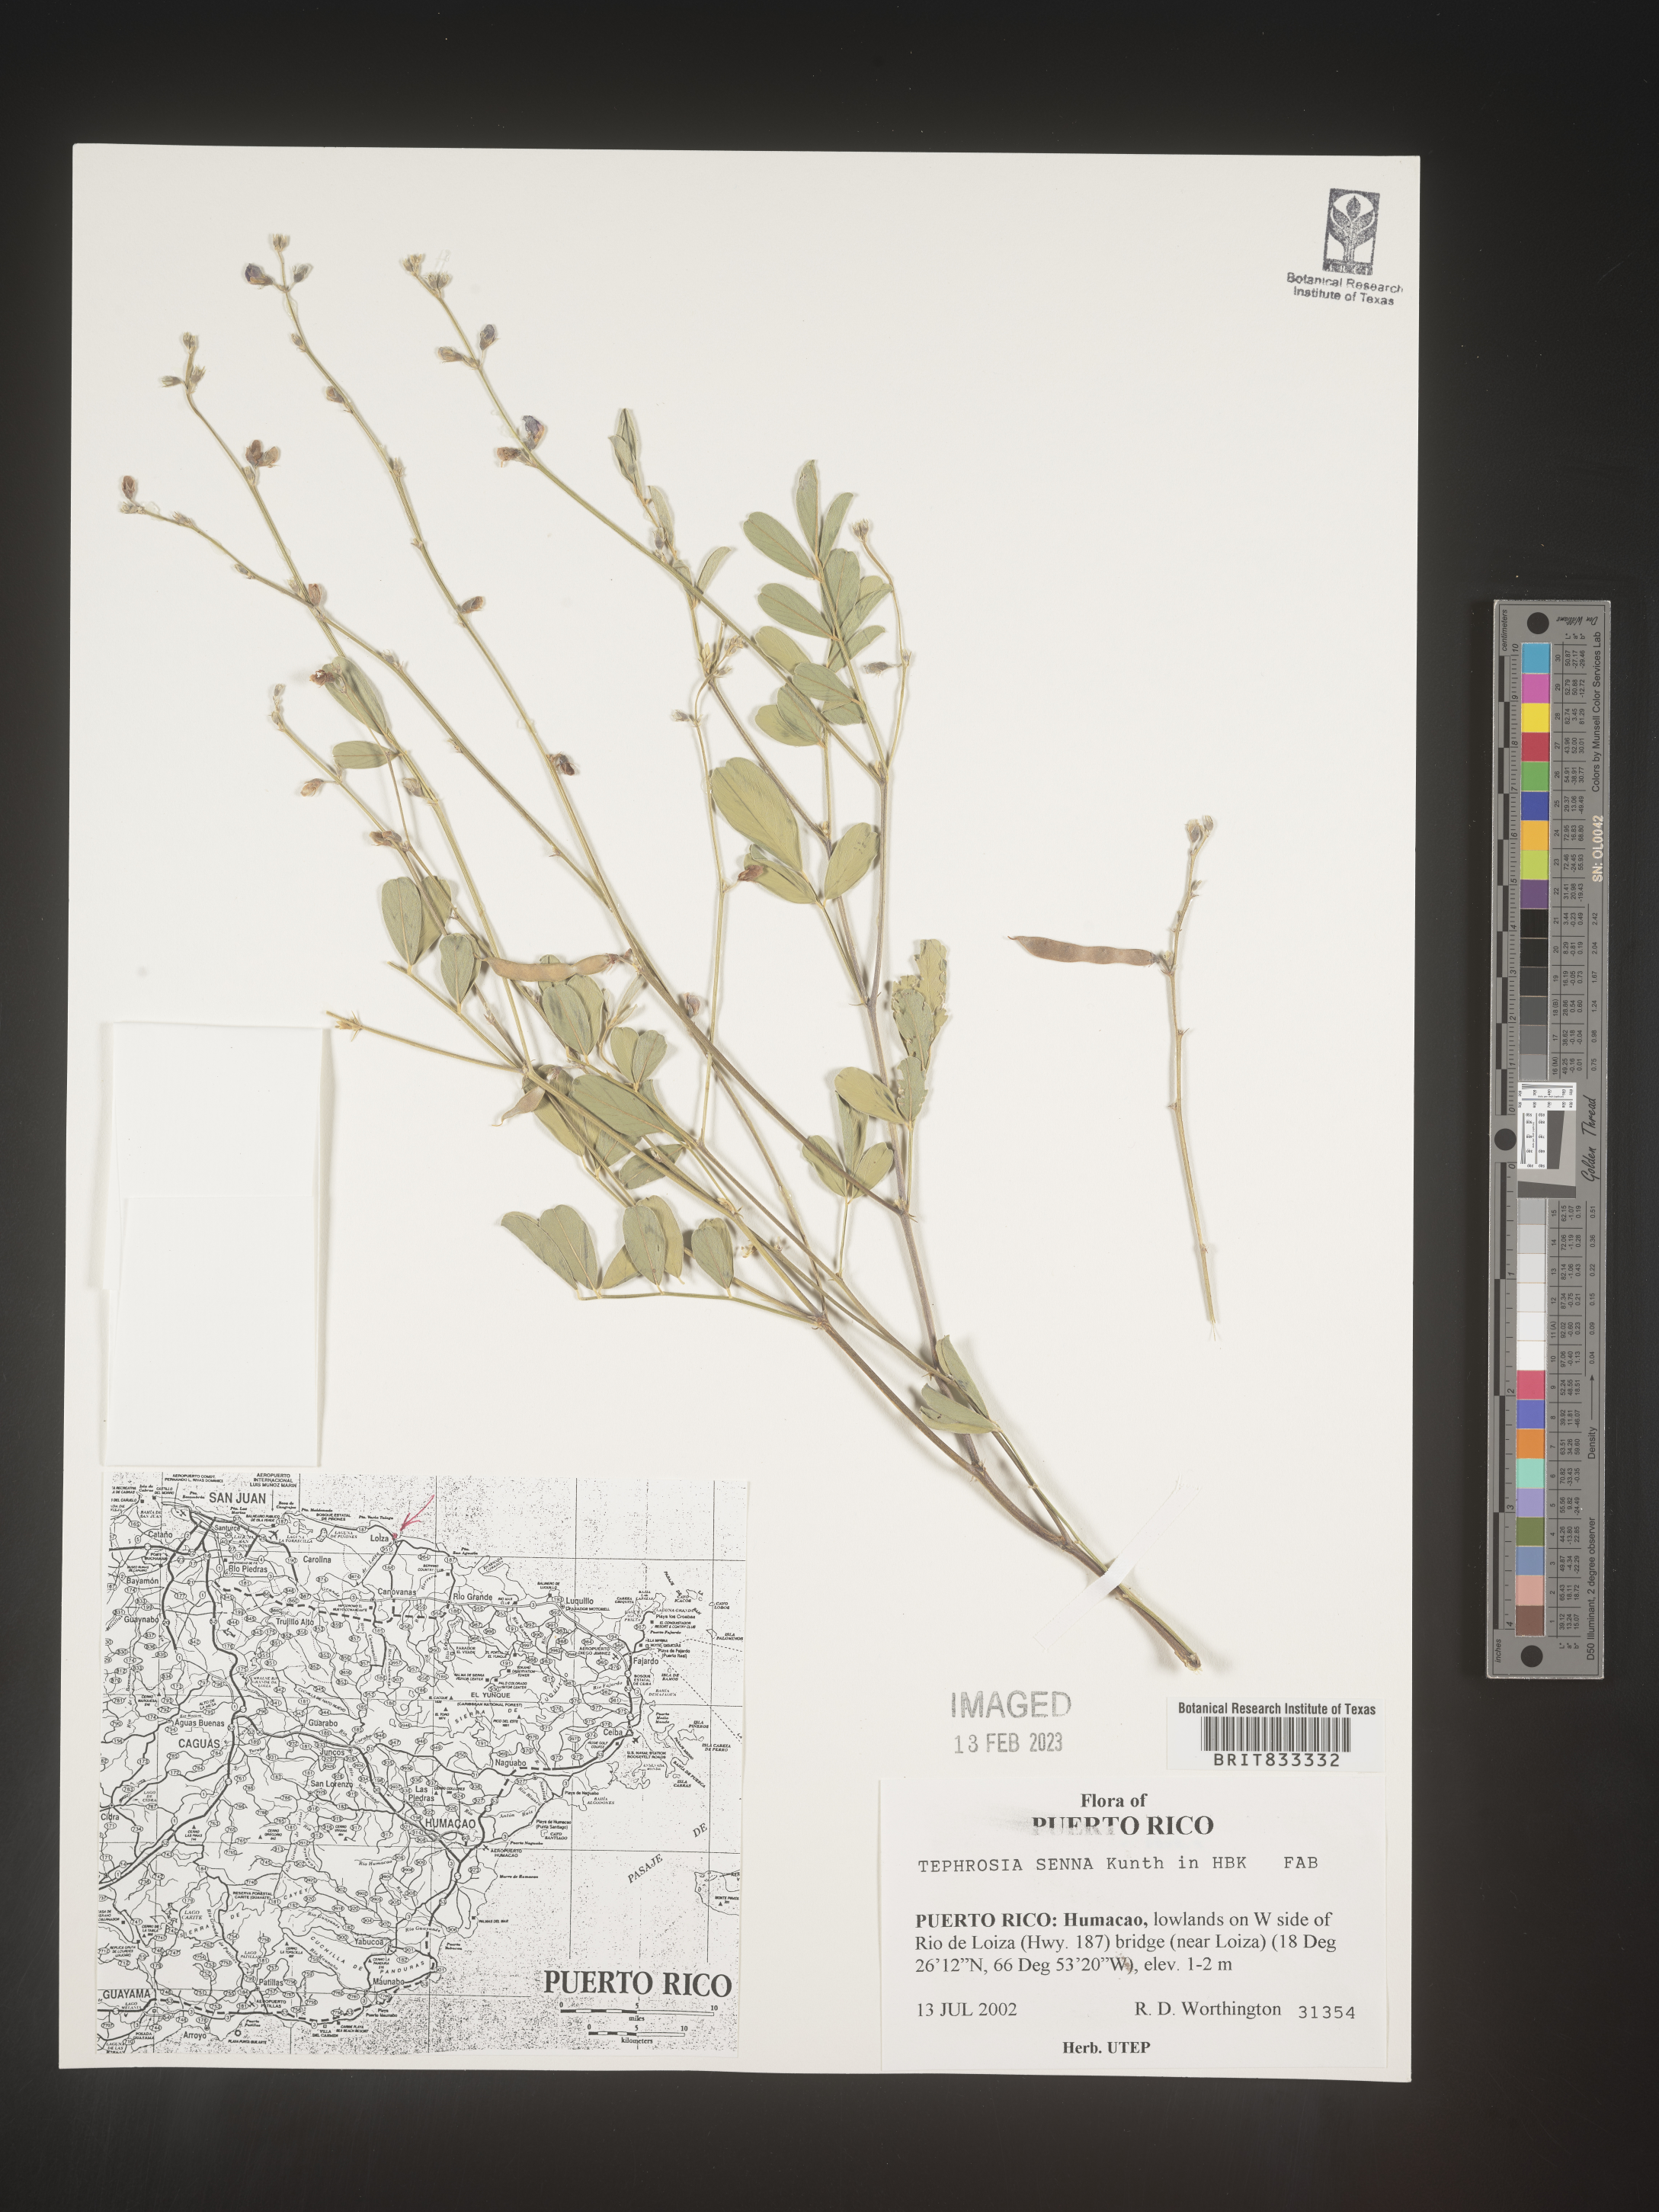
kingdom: Plantae
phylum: Tracheophyta
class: Magnoliopsida
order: Fabales
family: Fabaceae
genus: Tephrosia
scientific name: Tephrosia
